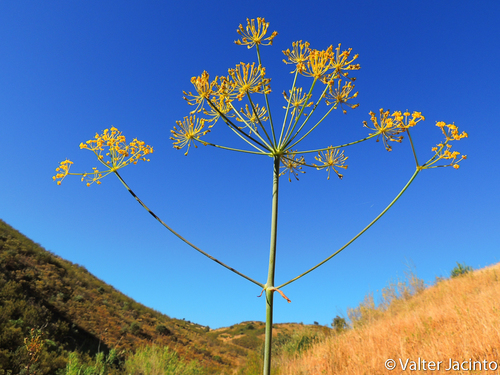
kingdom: Plantae
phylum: Tracheophyta
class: Magnoliopsida
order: Apiales
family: Apiaceae
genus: Thapsia
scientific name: Thapsia villosa
